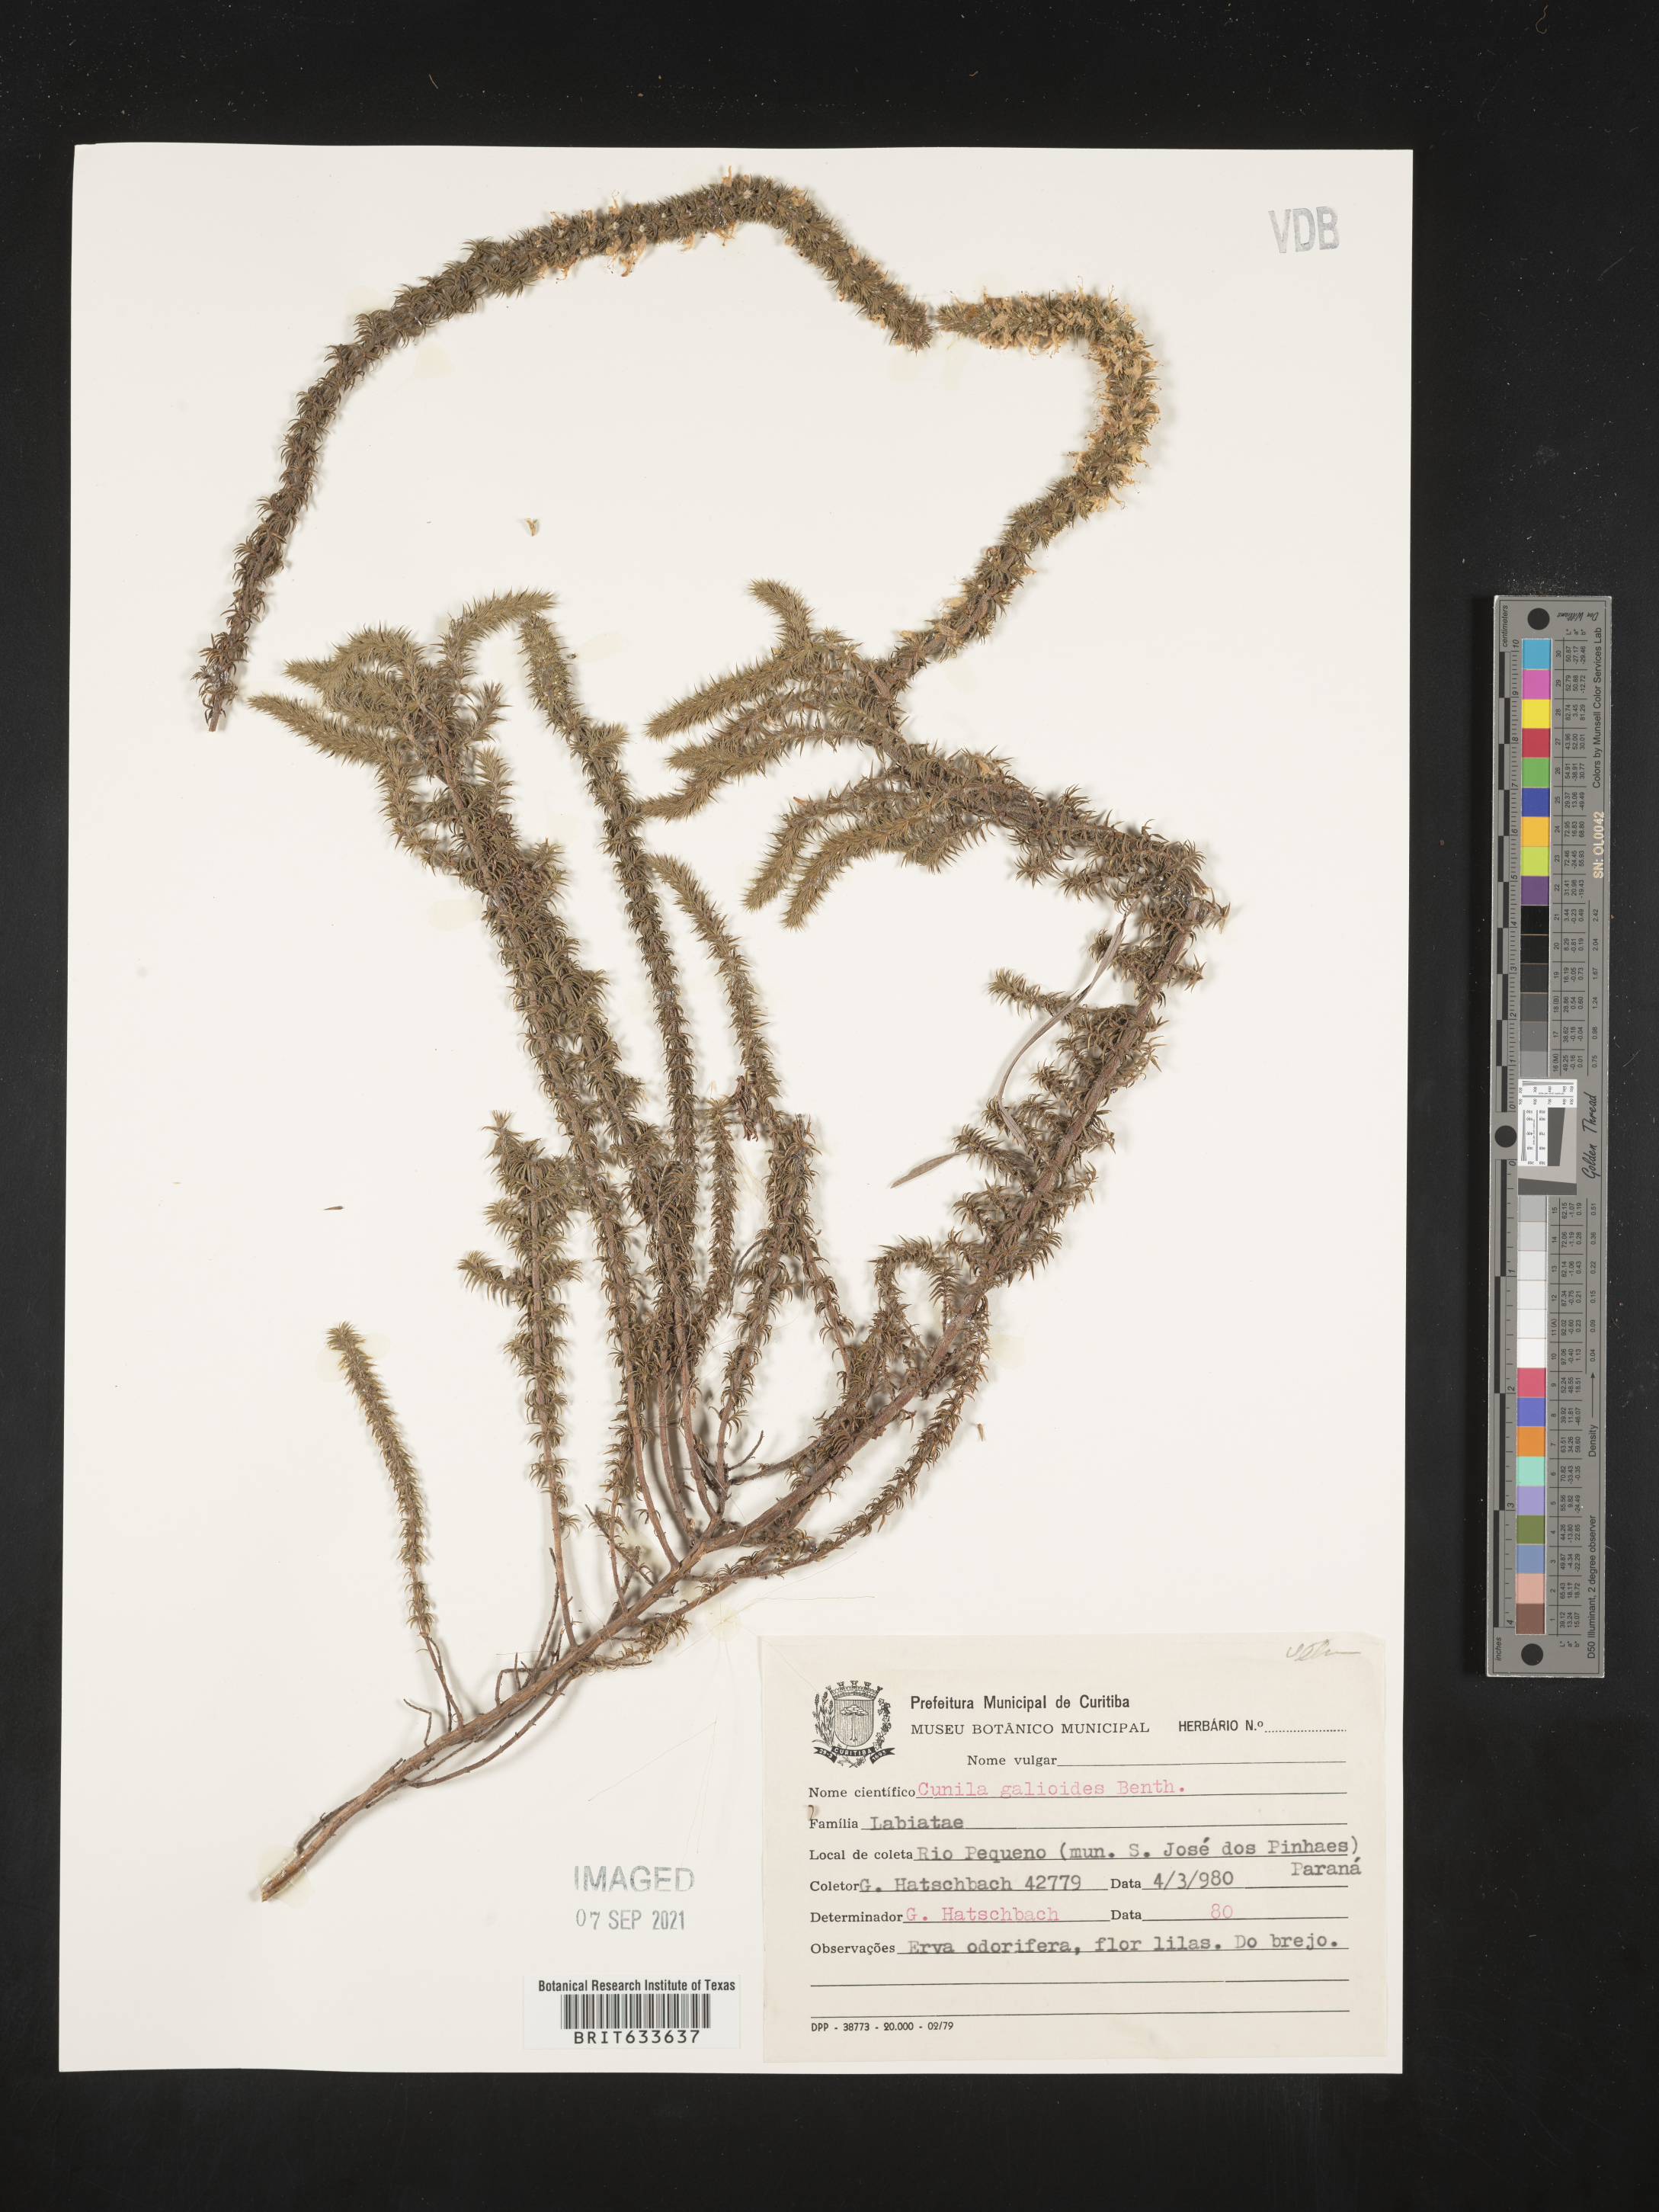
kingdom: Plantae
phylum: Tracheophyta
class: Magnoliopsida
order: Lamiales
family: Lamiaceae
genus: Cunila
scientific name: Cunila
